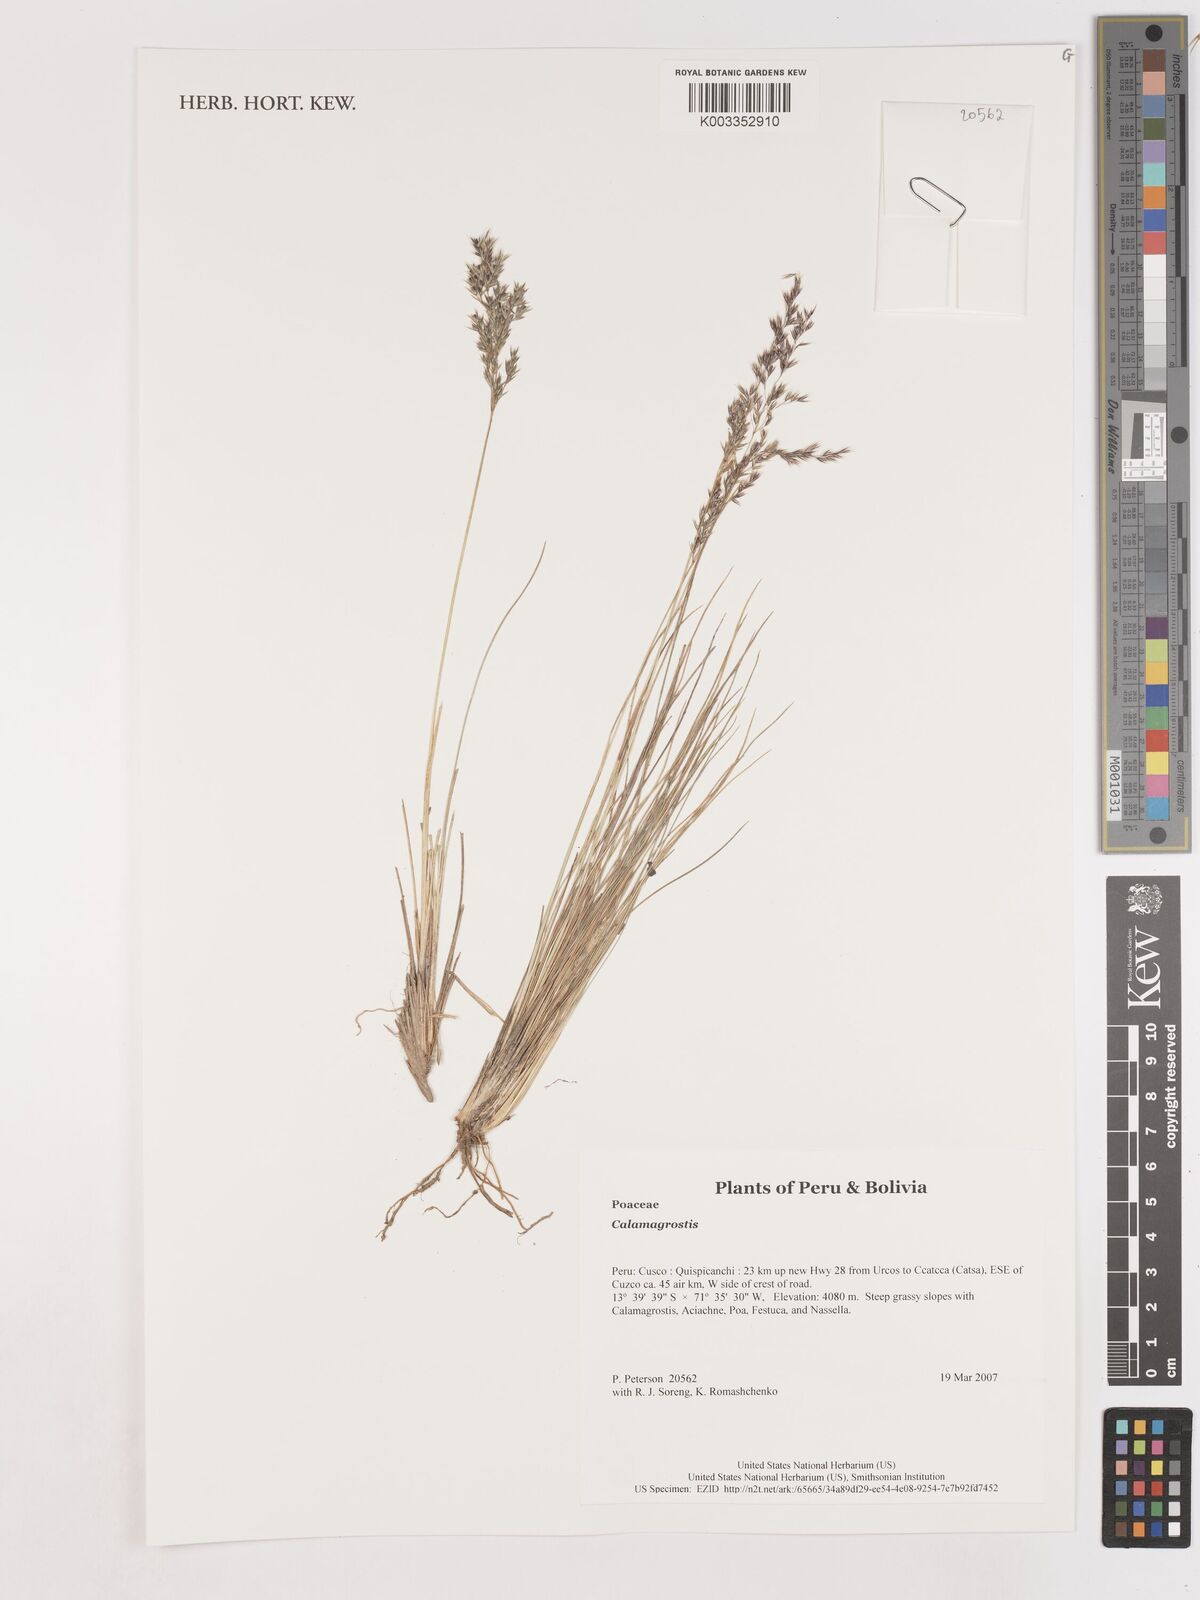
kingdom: Plantae
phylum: Tracheophyta
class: Liliopsida
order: Poales
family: Poaceae
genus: Calamagrostis
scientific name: Calamagrostis
